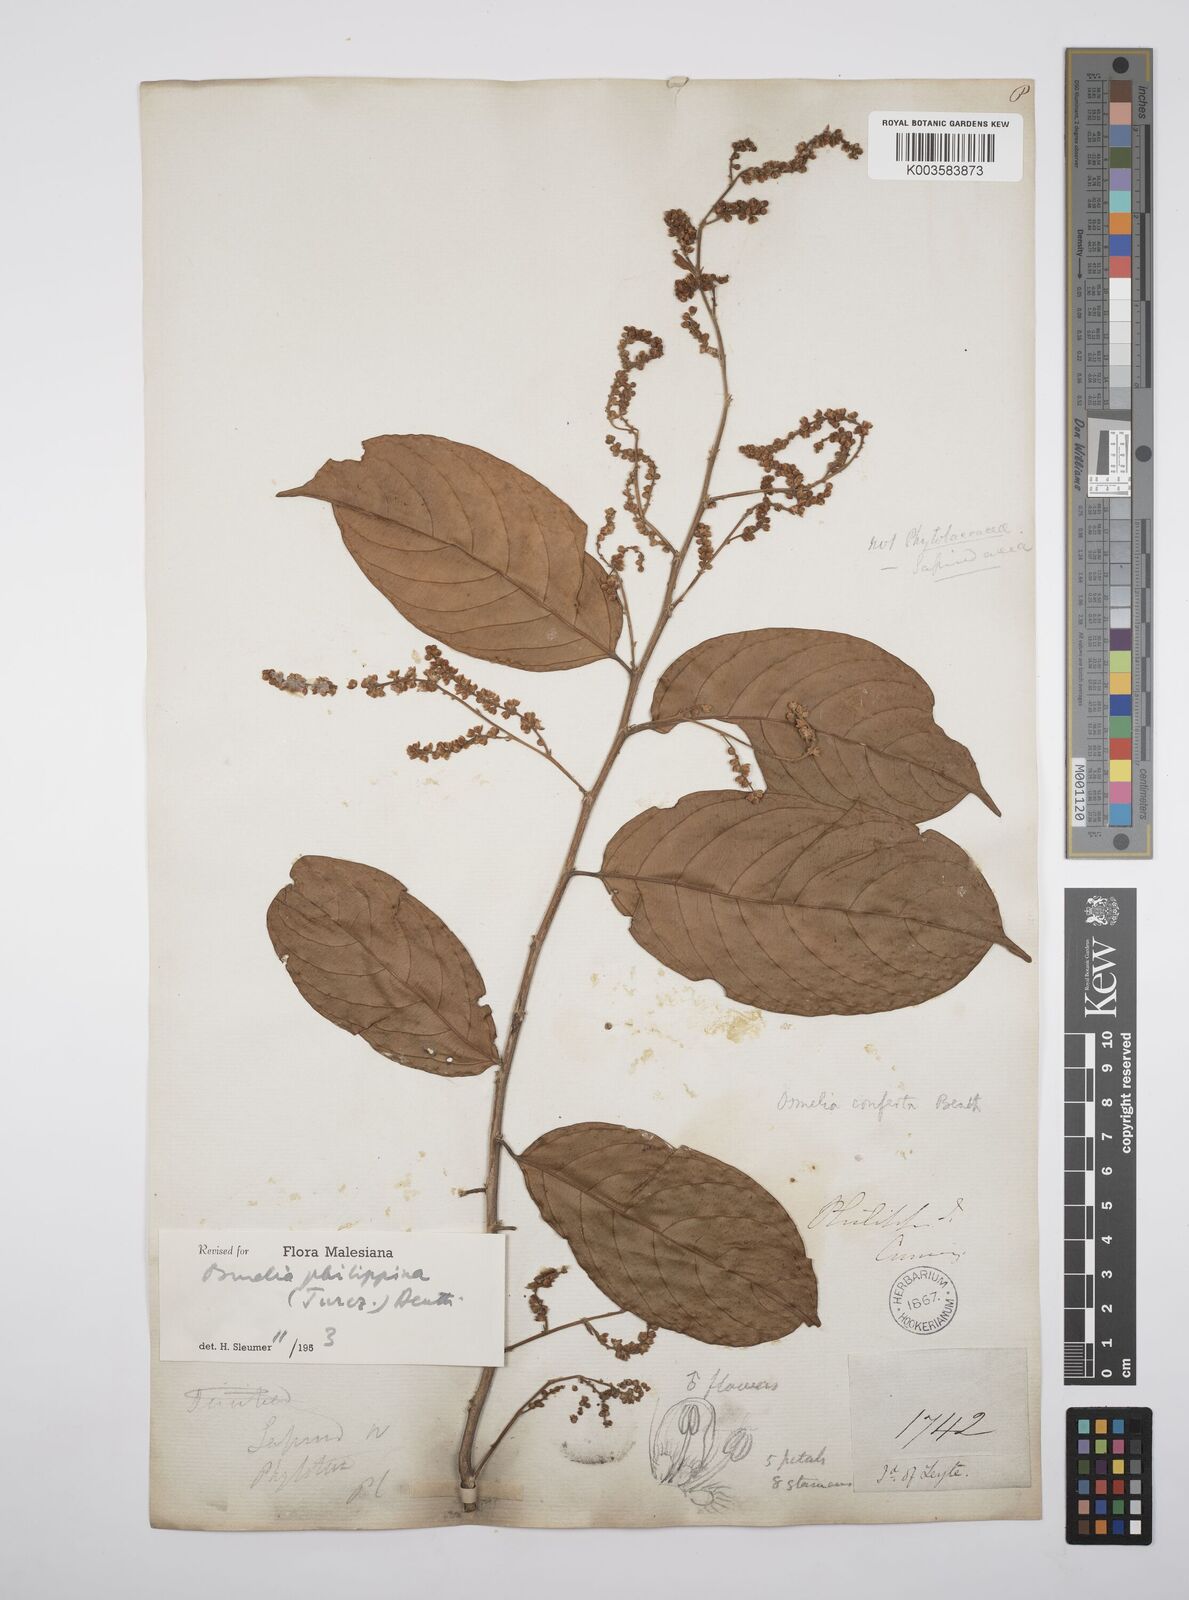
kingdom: Plantae
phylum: Tracheophyta
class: Magnoliopsida
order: Malpighiales
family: Salicaceae
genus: Osmelia
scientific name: Osmelia philippina
